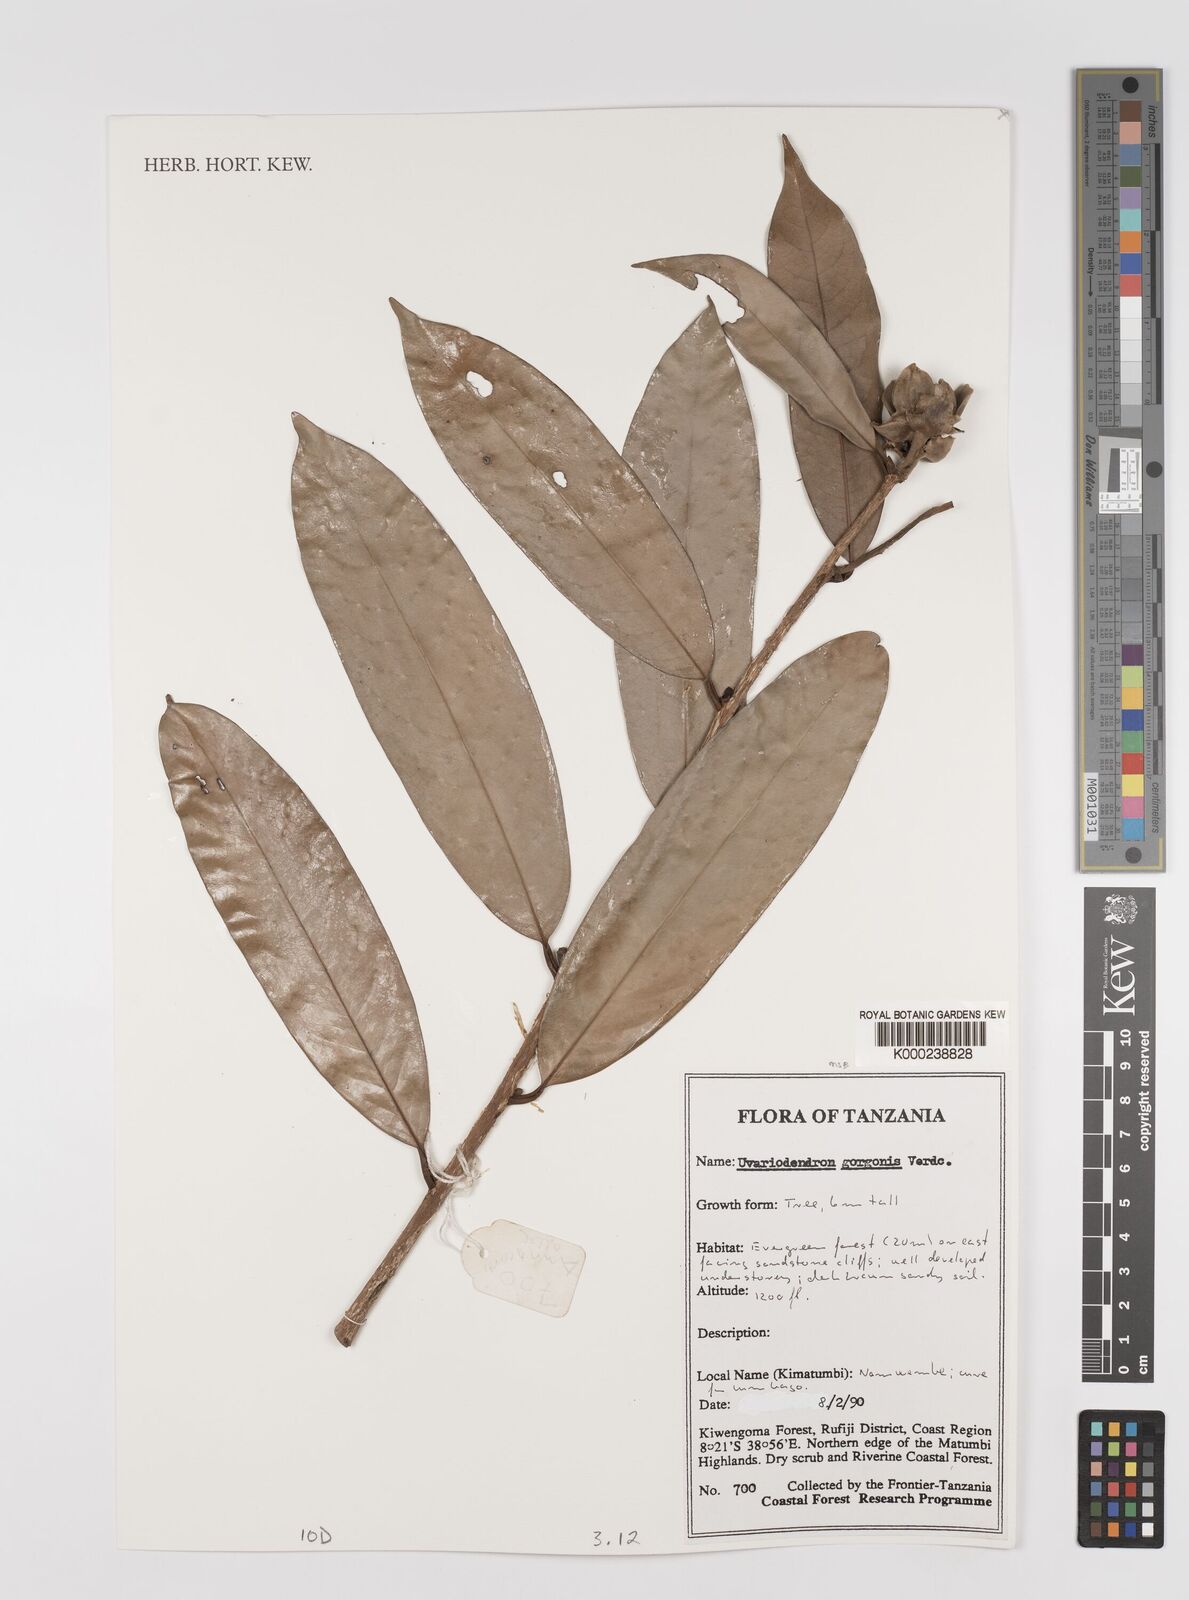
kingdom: Plantae
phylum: Tracheophyta
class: Magnoliopsida
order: Magnoliales
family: Annonaceae
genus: Uvariodendron
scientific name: Uvariodendron gorgonis
